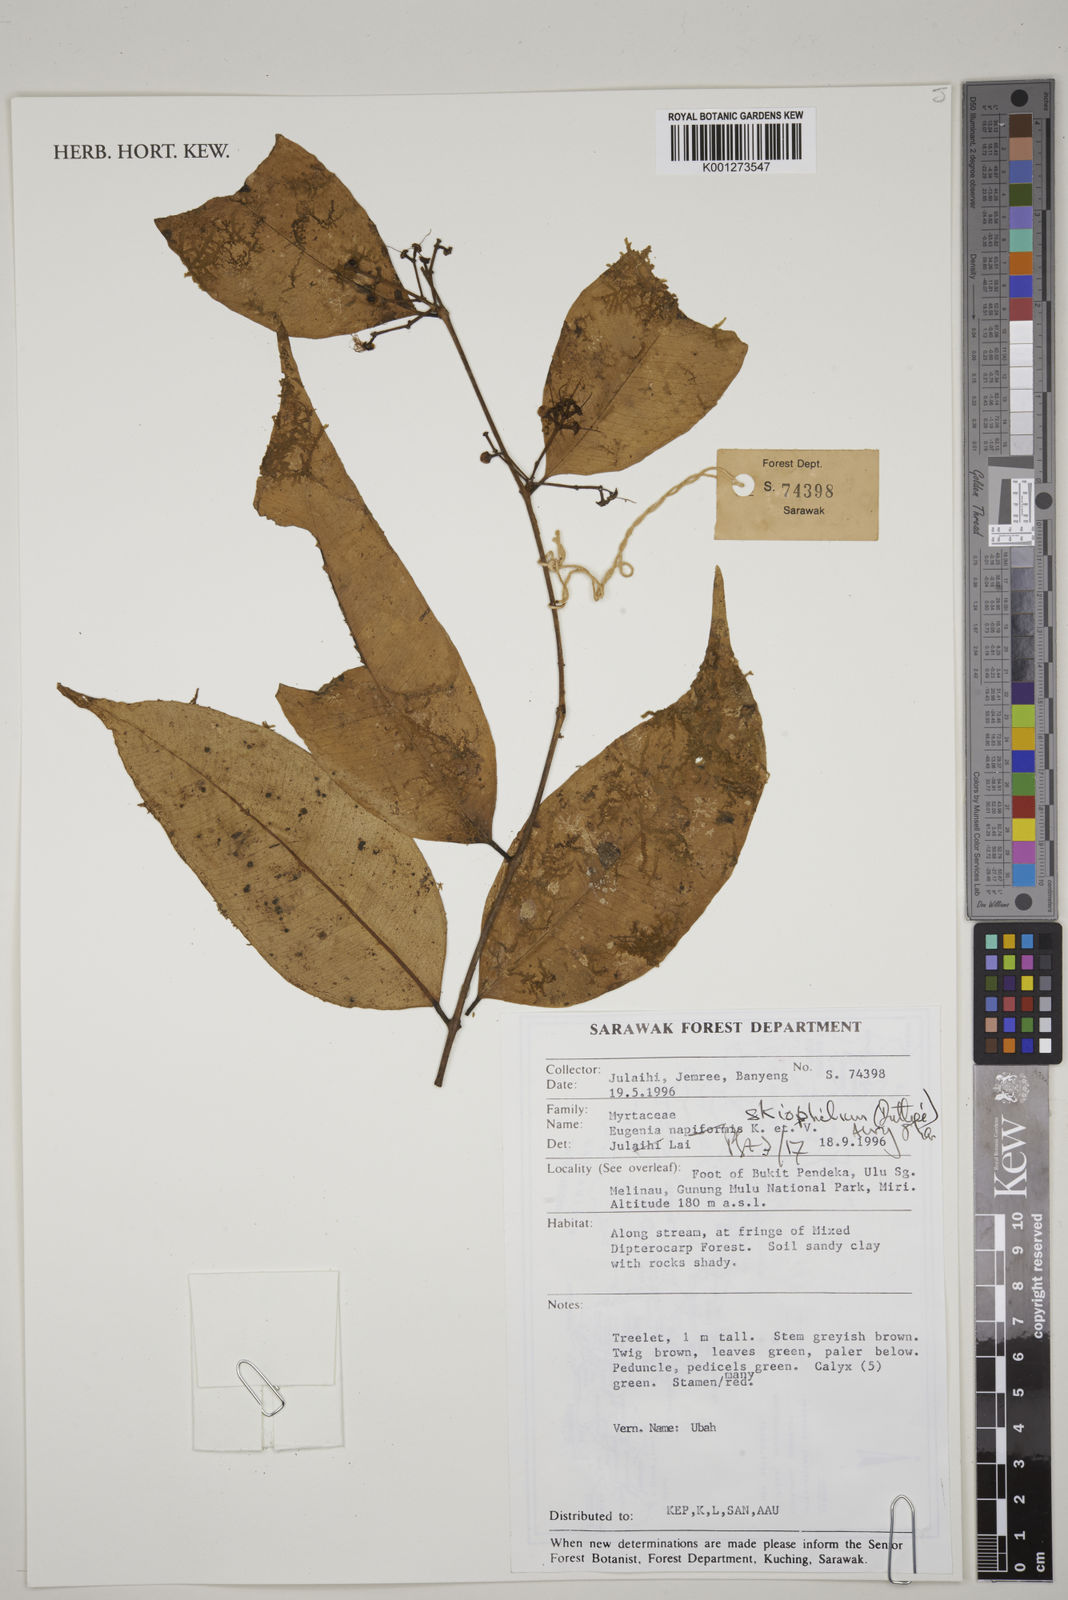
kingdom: Plantae
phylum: Tracheophyta
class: Magnoliopsida
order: Myrtales
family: Myrtaceae
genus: Syzygium
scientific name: Syzygium skiophilum
